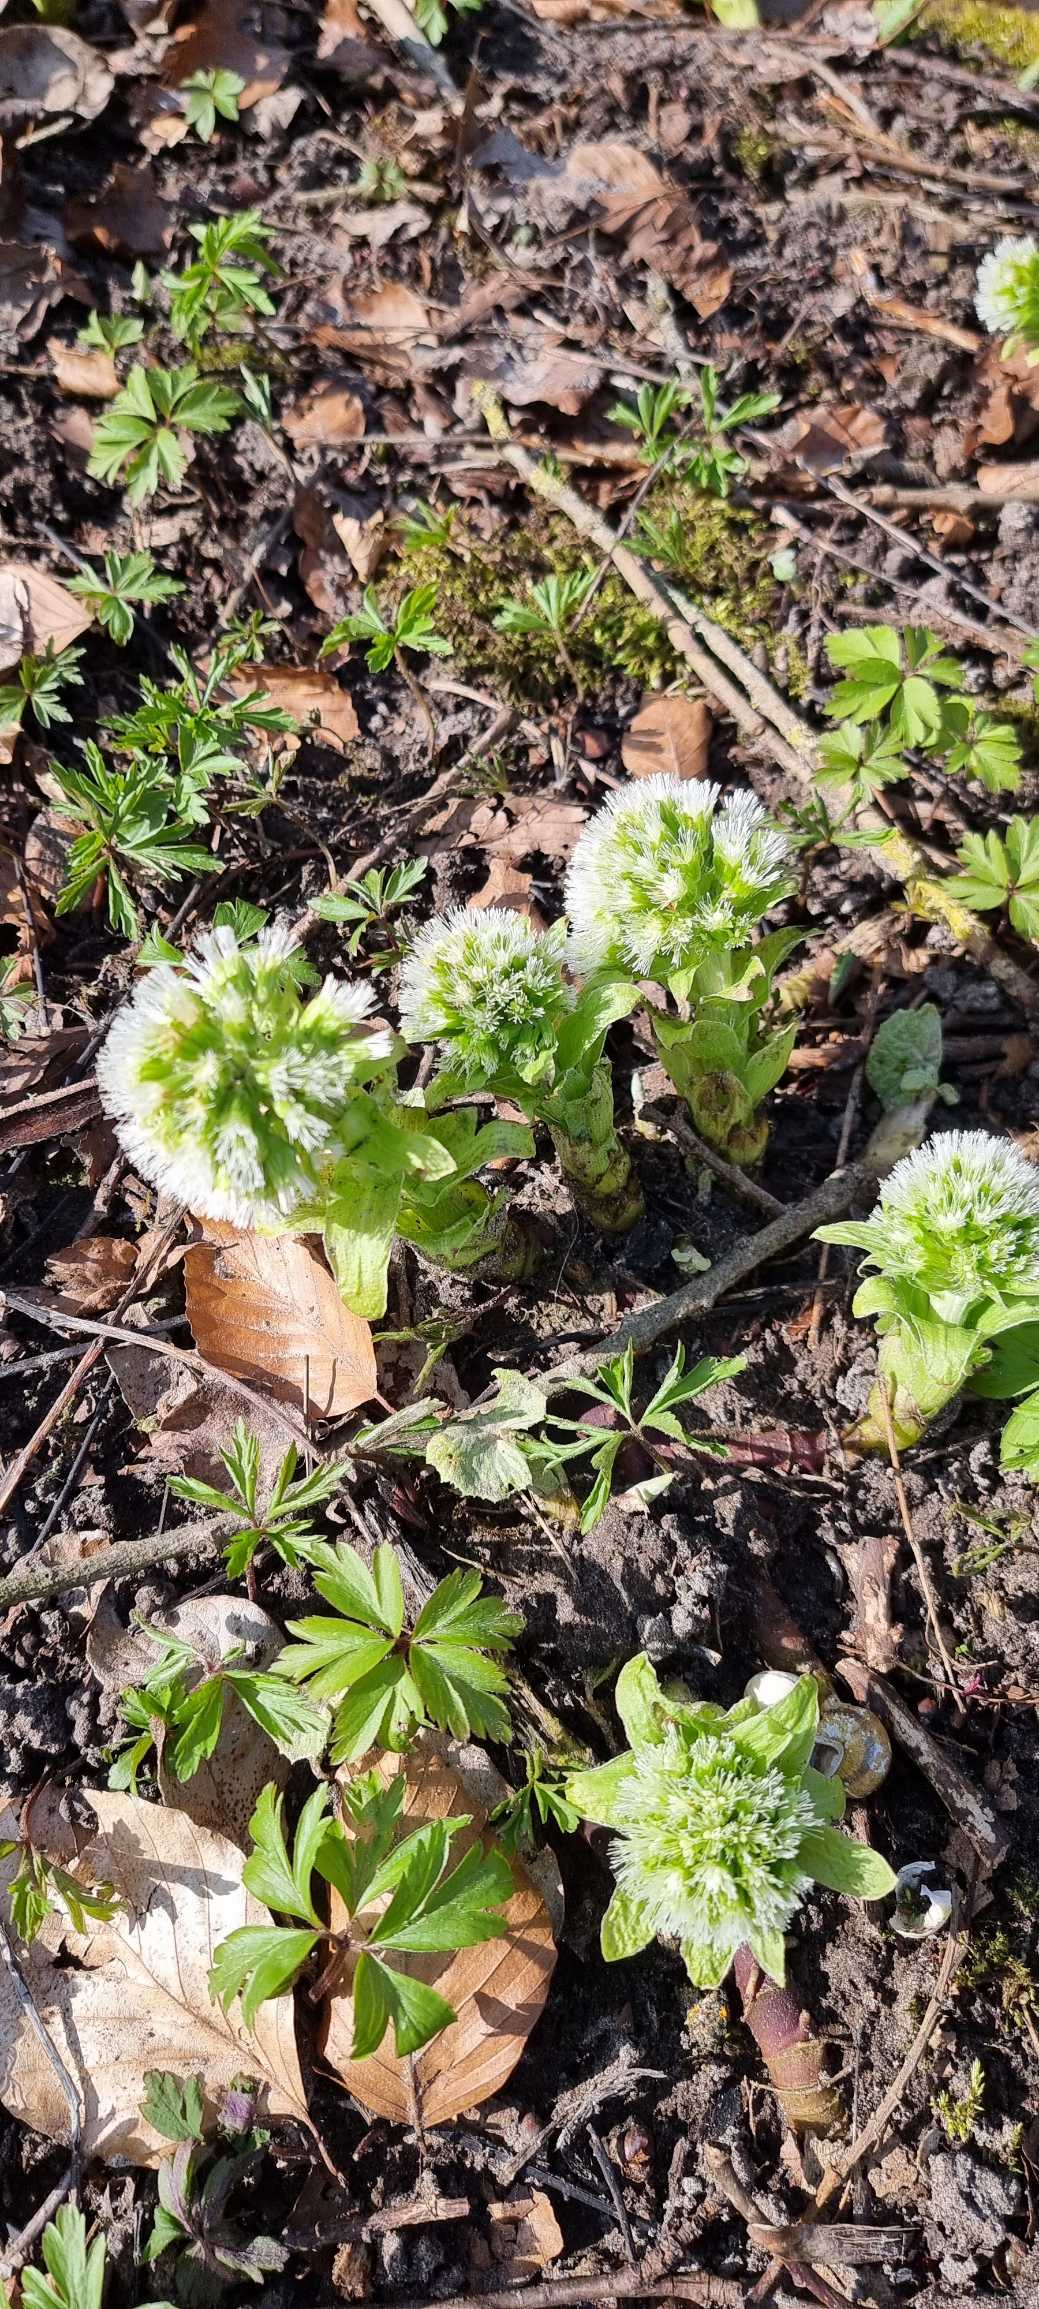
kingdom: Plantae
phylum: Tracheophyta
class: Magnoliopsida
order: Asterales
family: Asteraceae
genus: Petasites
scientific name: Petasites albus
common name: Hvid hestehov
